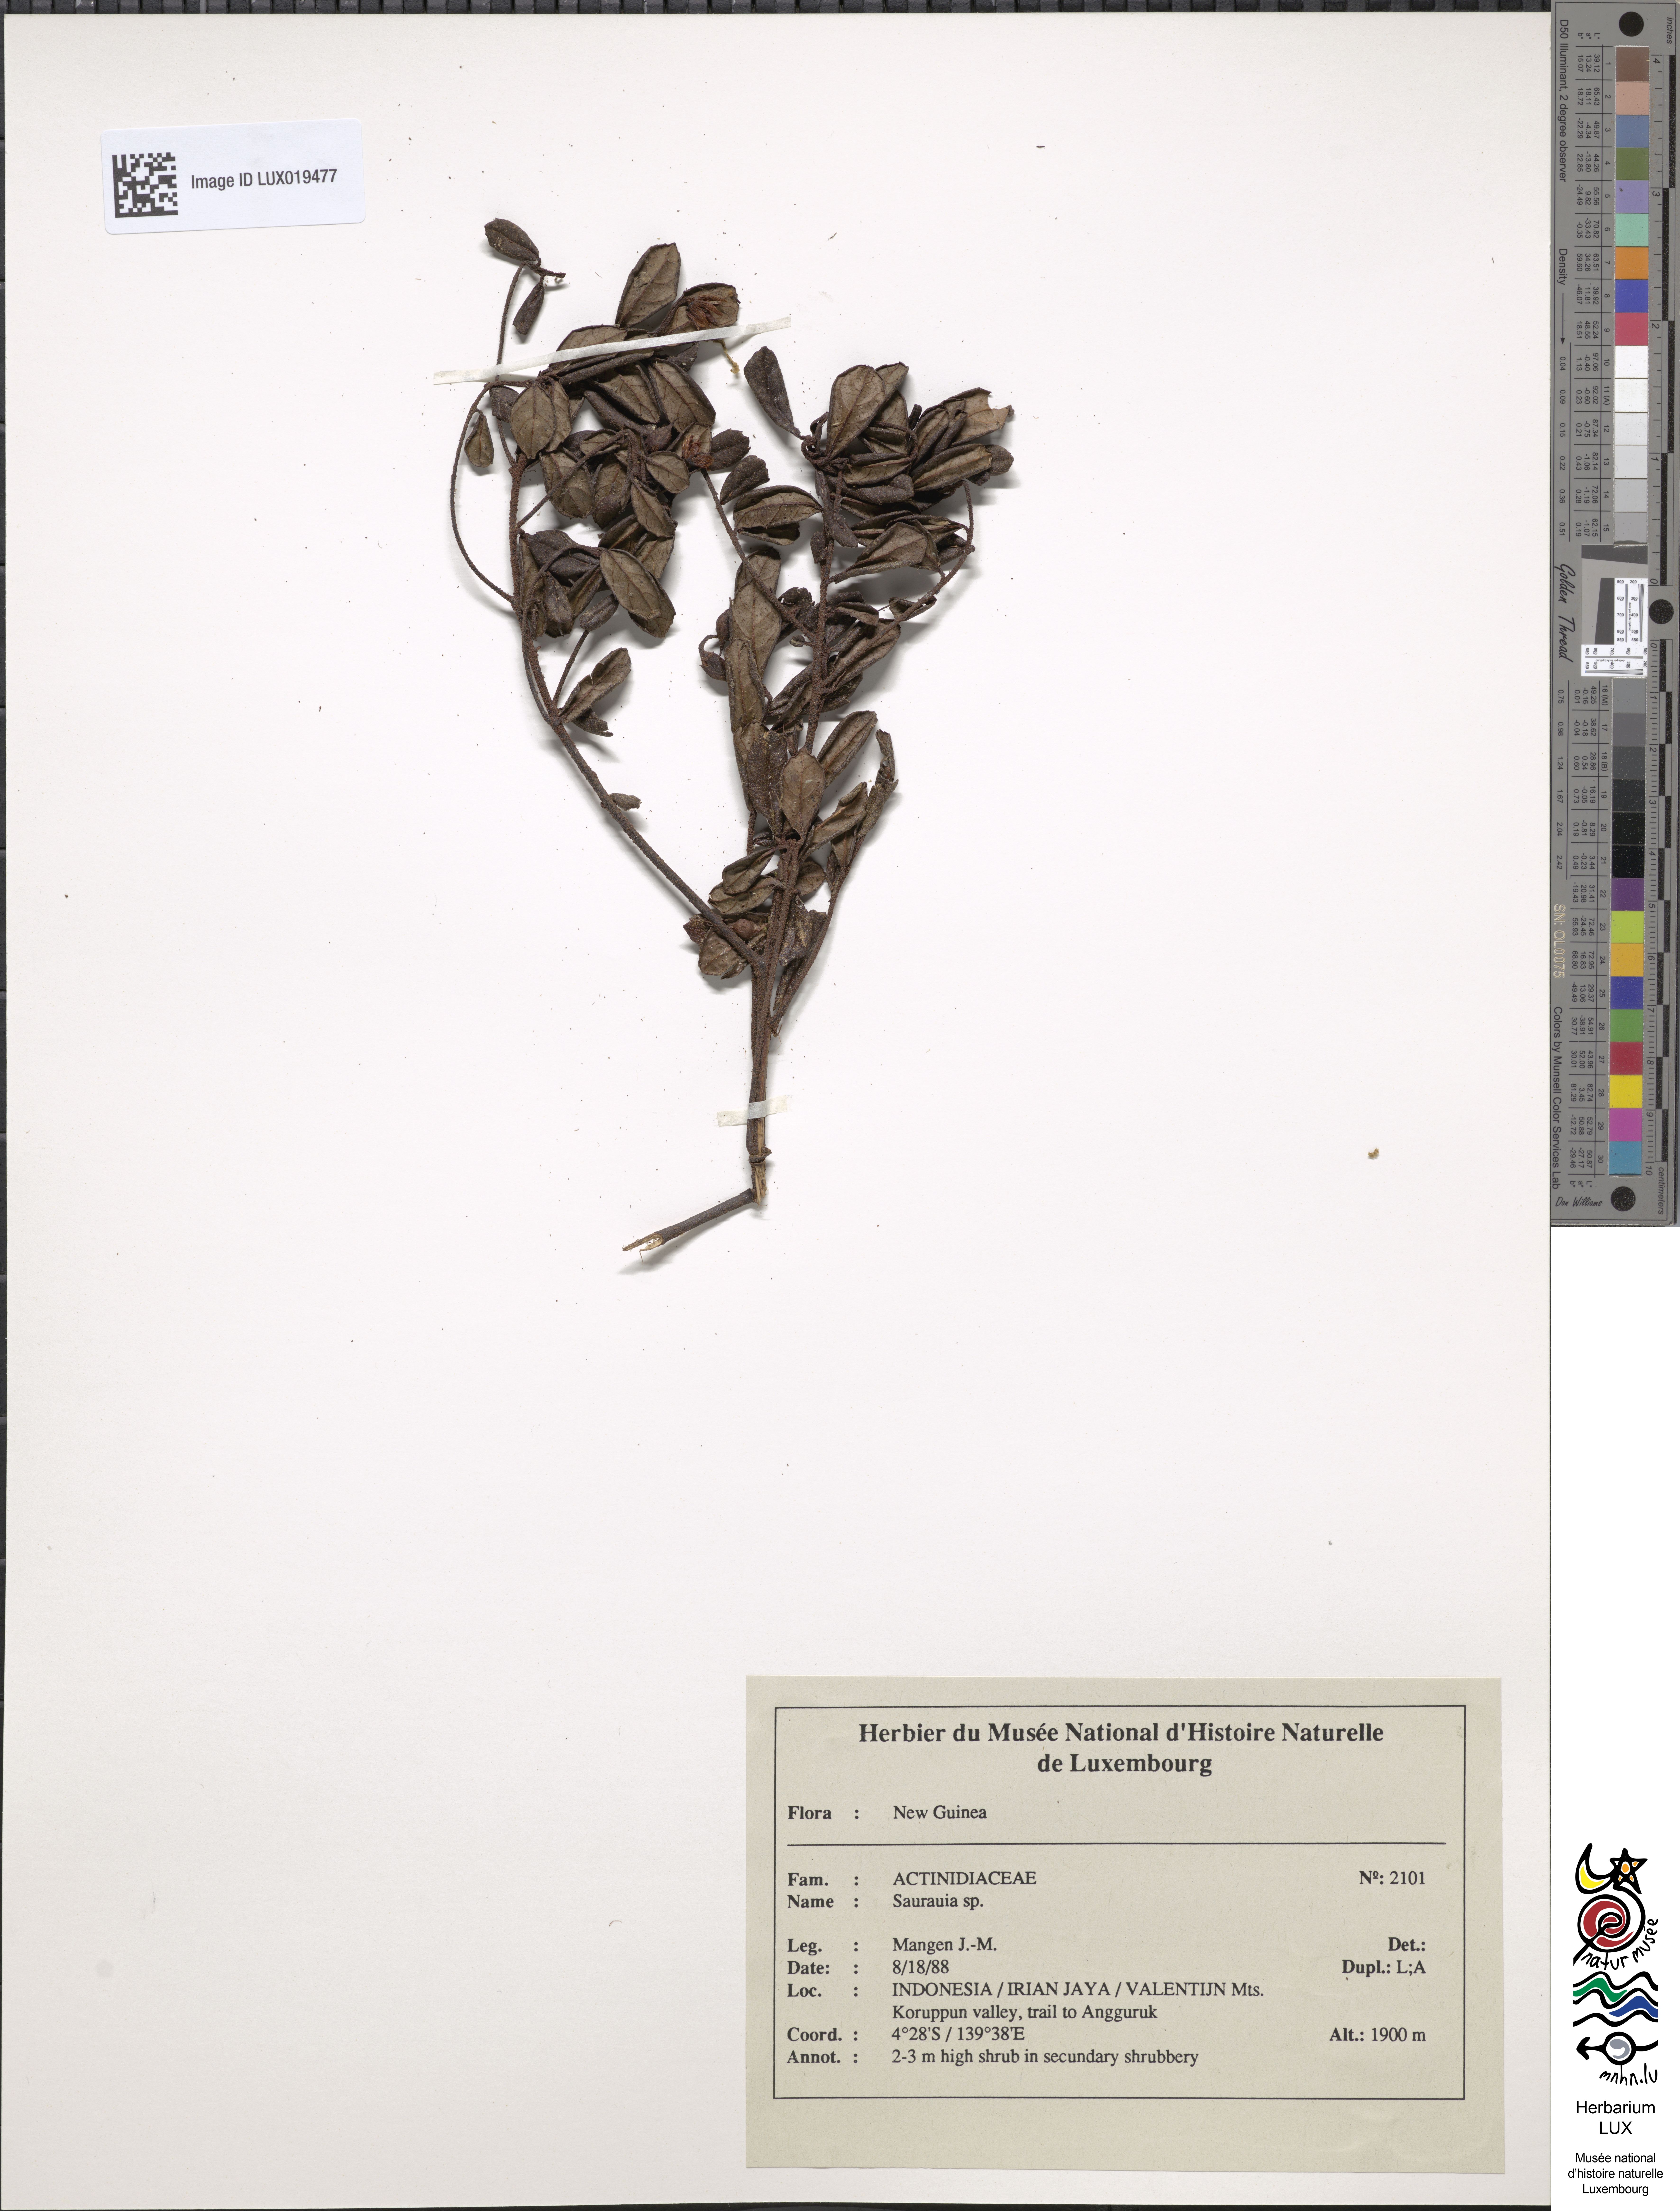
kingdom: Plantae
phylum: Tracheophyta
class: Magnoliopsida
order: Ericales
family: Actinidiaceae
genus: Saurauia
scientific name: Saurauia
